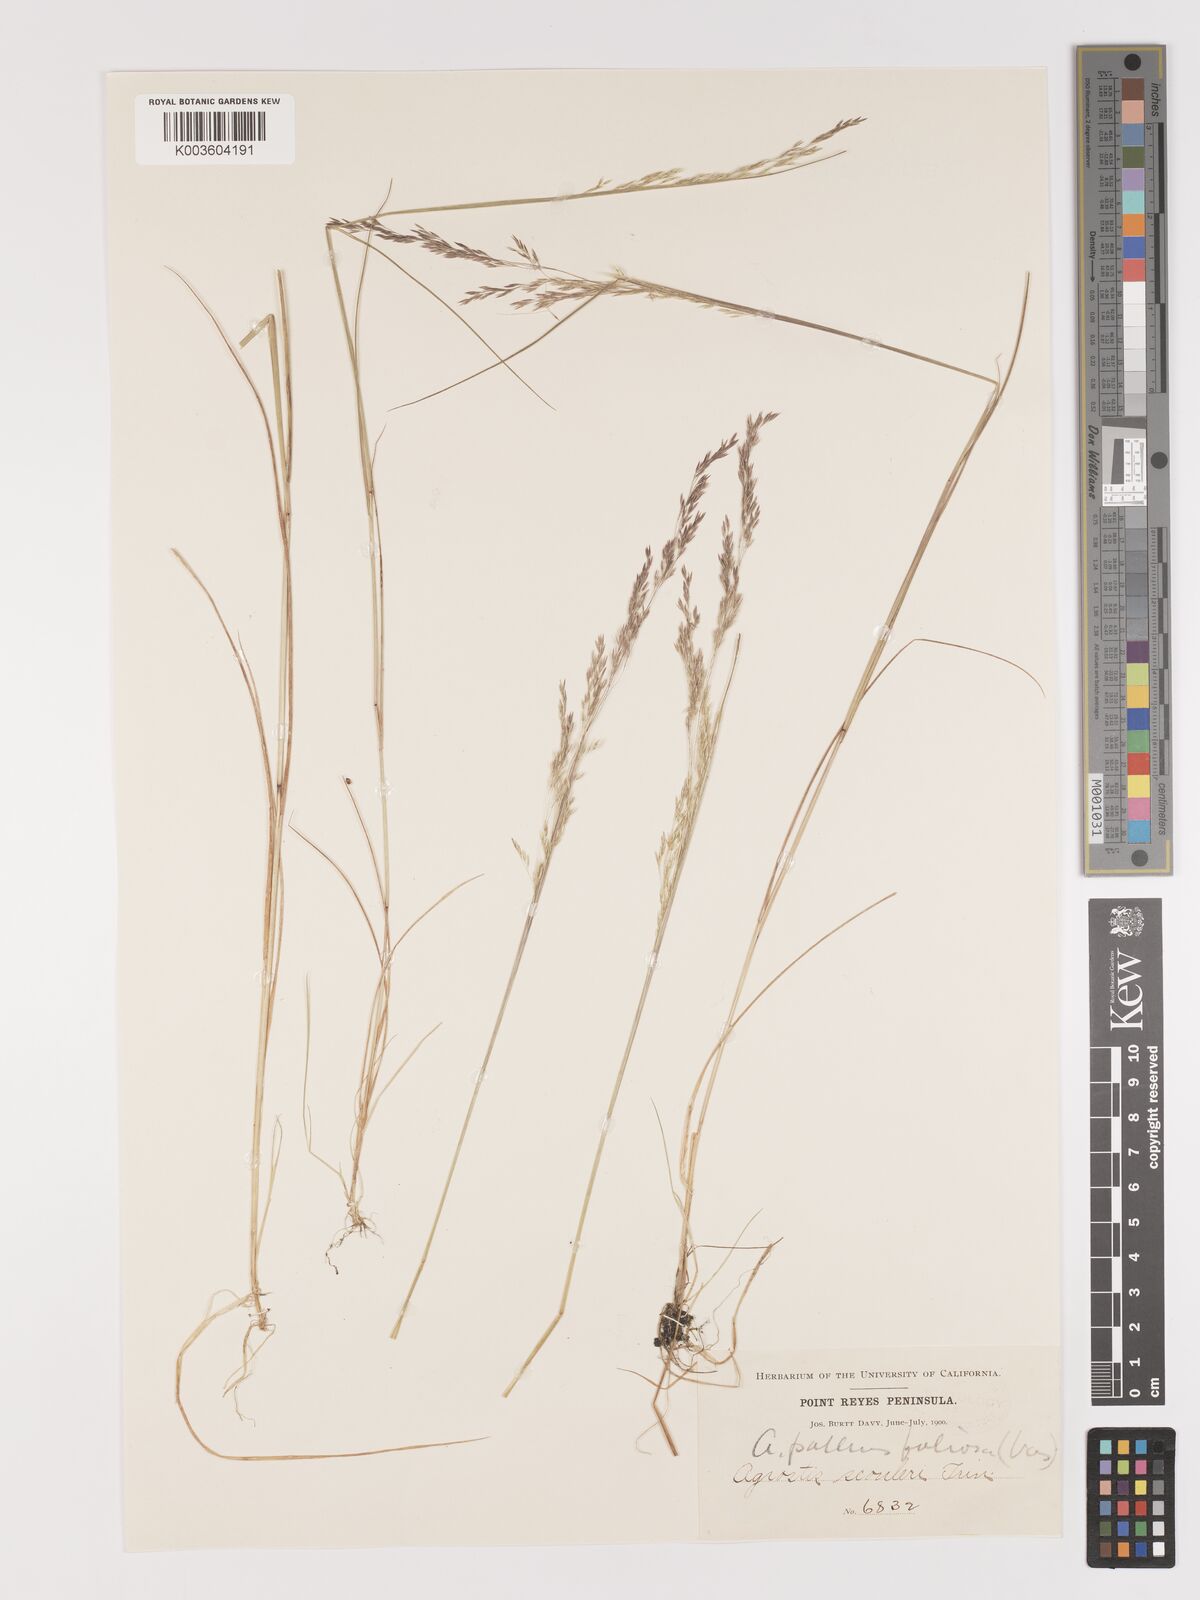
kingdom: Plantae
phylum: Tracheophyta
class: Liliopsida
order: Poales
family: Poaceae
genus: Agrostis
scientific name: Agrostis pallens
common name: Dune bent
